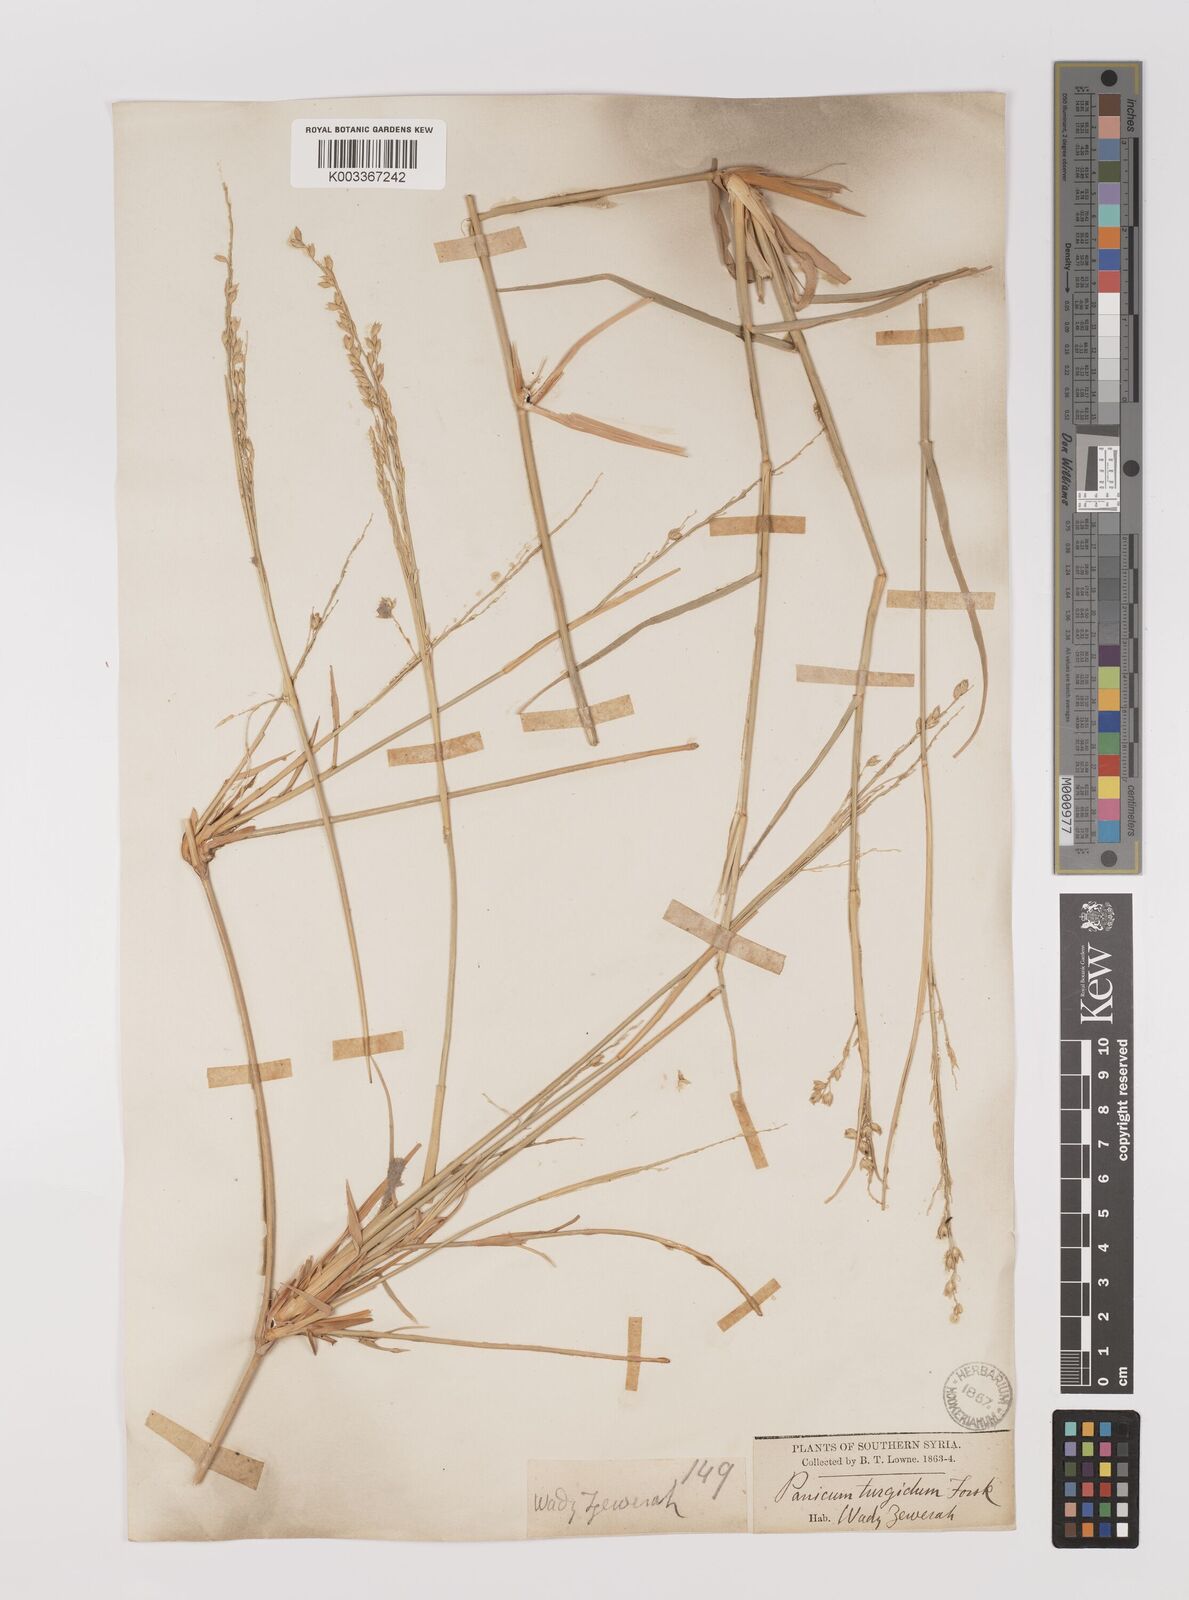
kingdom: Plantae
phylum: Tracheophyta
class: Liliopsida
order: Poales
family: Poaceae
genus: Panicum
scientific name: Panicum turgidum
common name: Desert grass
